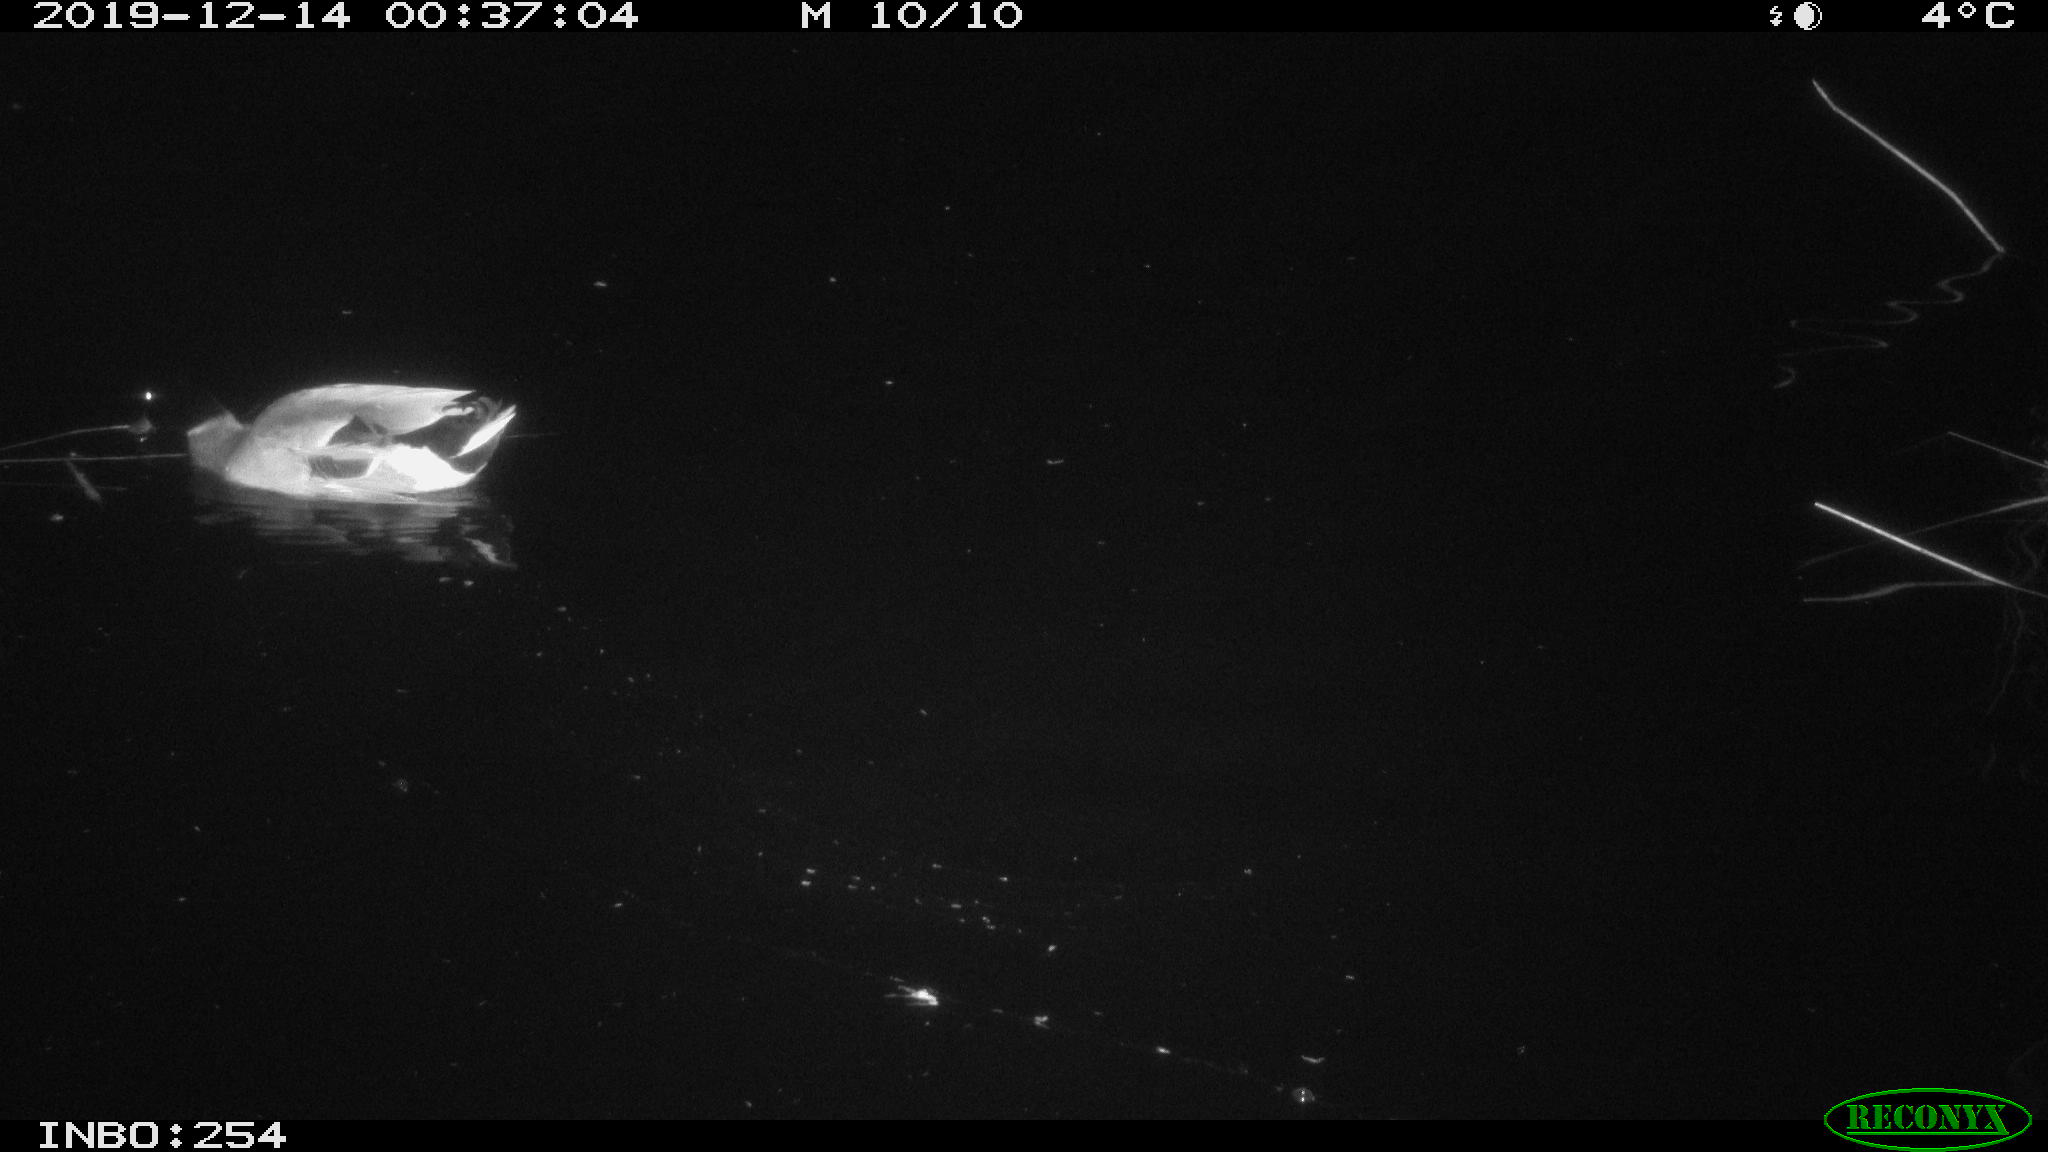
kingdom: Animalia
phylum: Chordata
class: Aves
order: Anseriformes
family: Anatidae
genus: Anas
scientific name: Anas platyrhynchos
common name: Mallard
